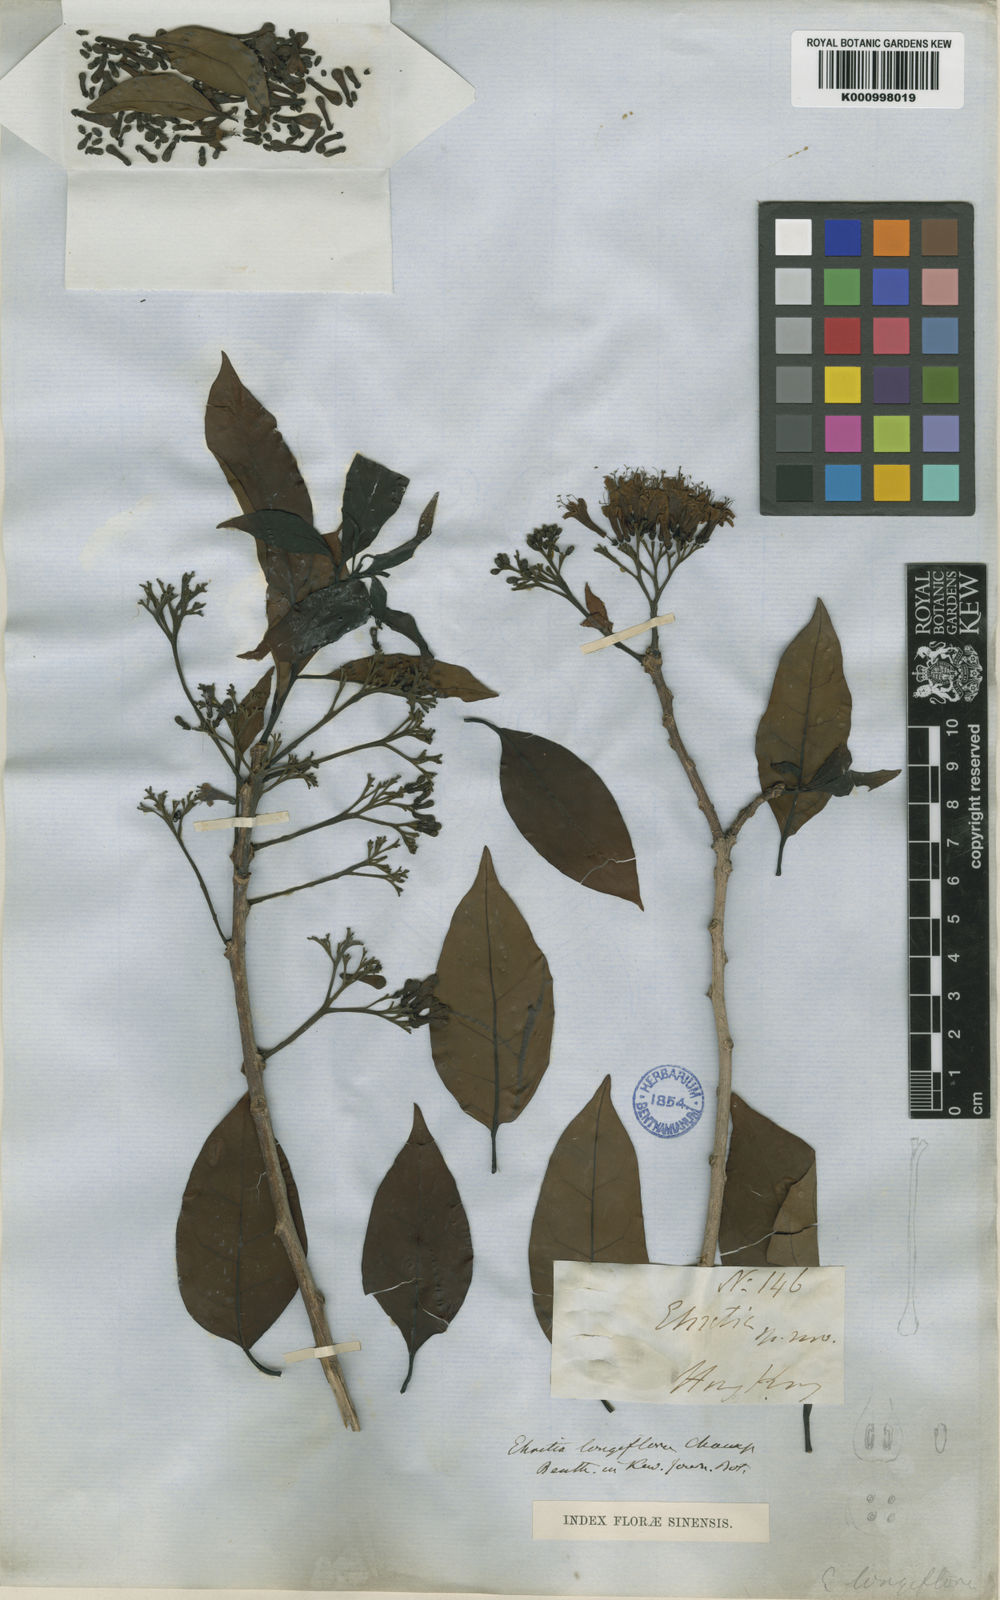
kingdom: Plantae
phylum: Tracheophyta
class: Magnoliopsida
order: Boraginales
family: Ehretiaceae
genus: Ehretia
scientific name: Ehretia longiflora
